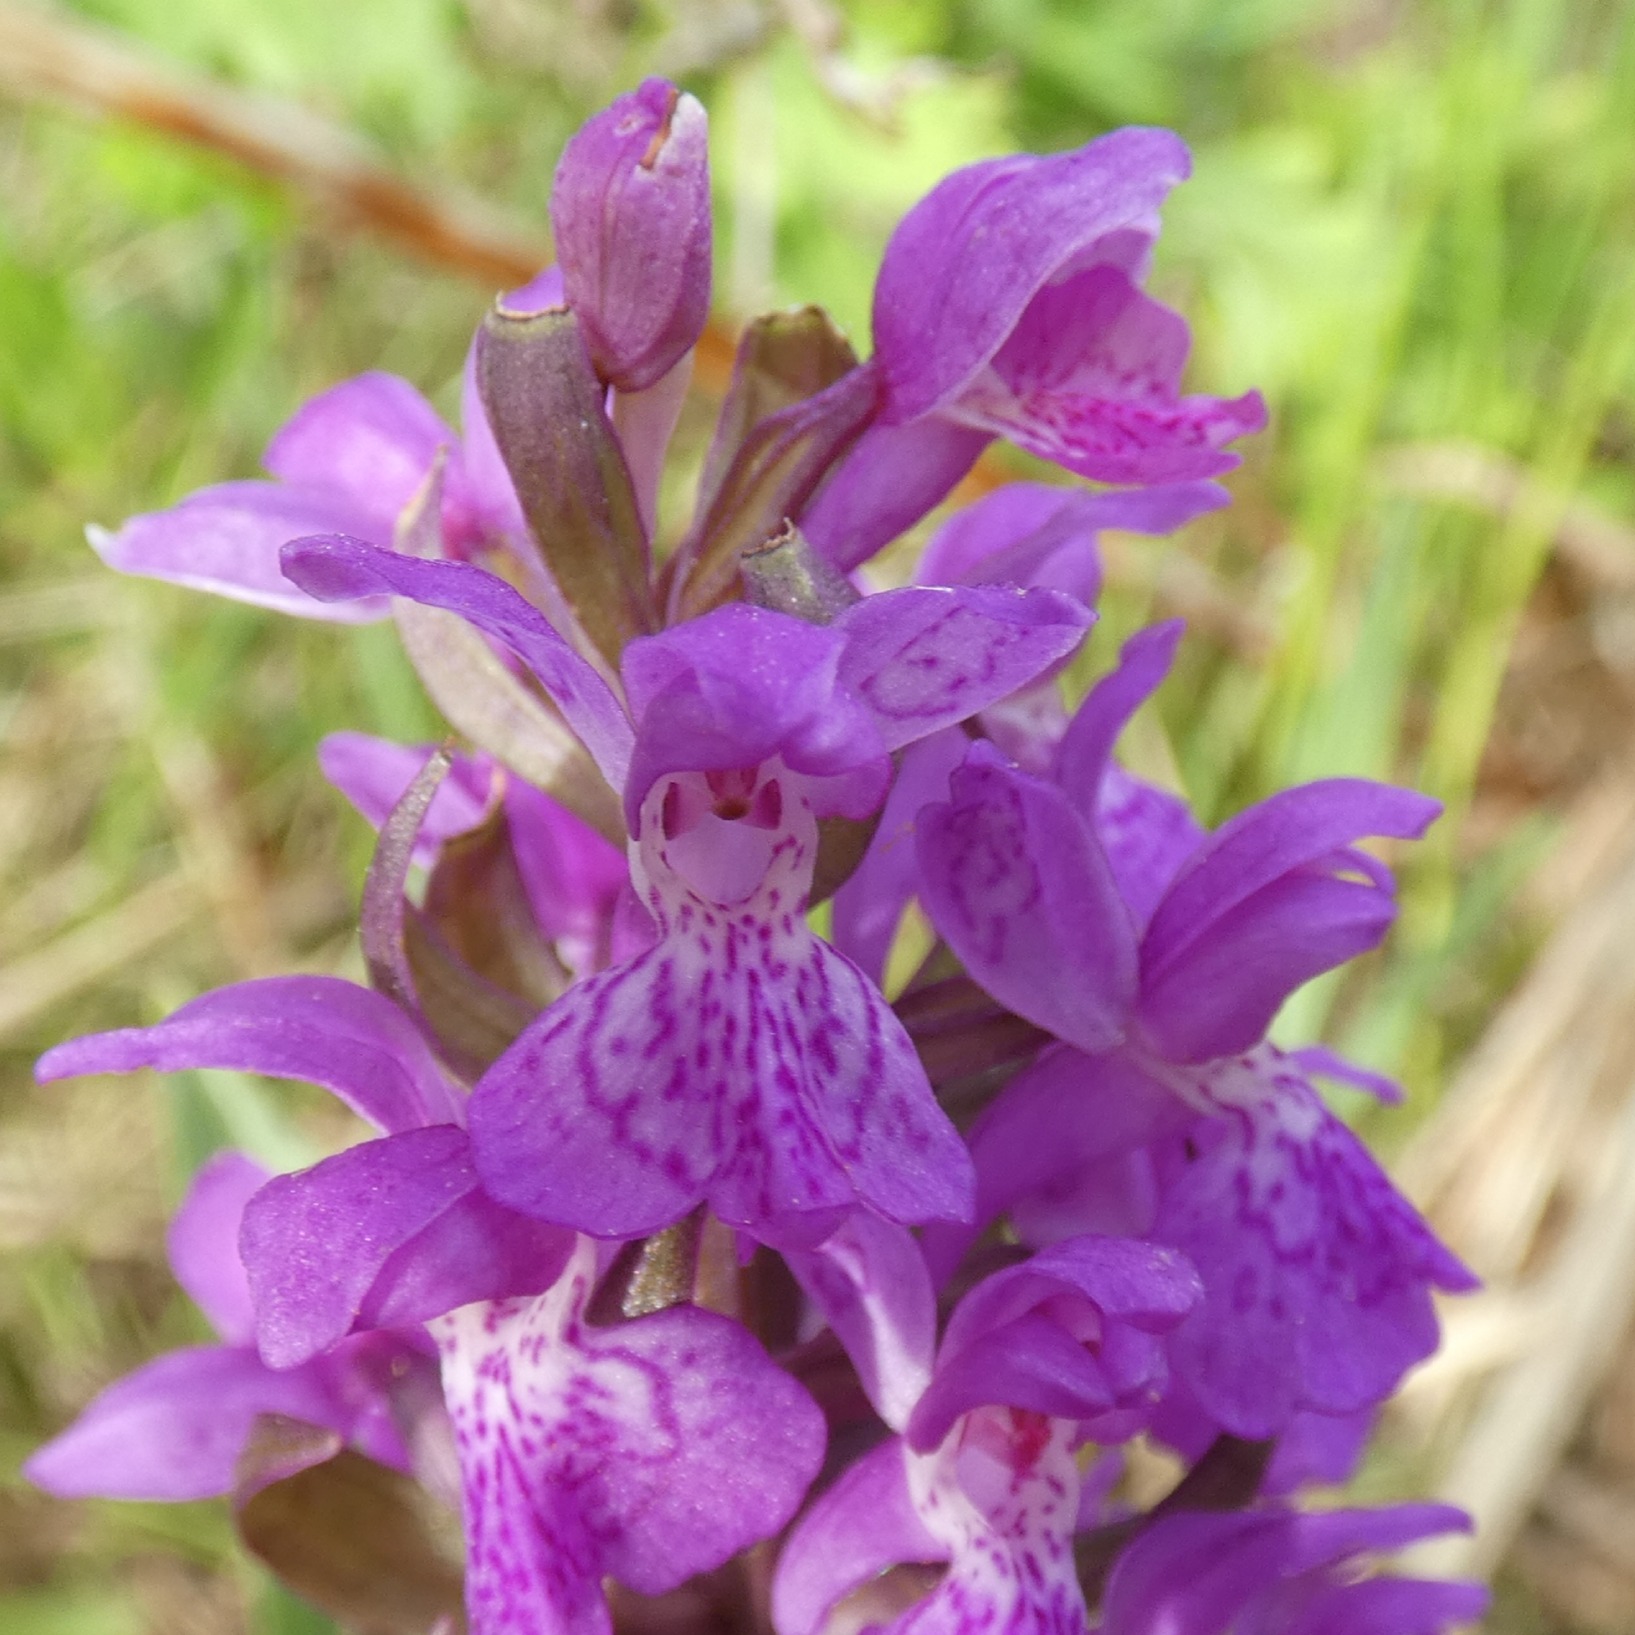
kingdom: Plantae
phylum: Tracheophyta
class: Liliopsida
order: Asparagales
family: Orchidaceae
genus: Dactylorhiza
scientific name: Dactylorhiza majalis
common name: Maj-gøgeurt
